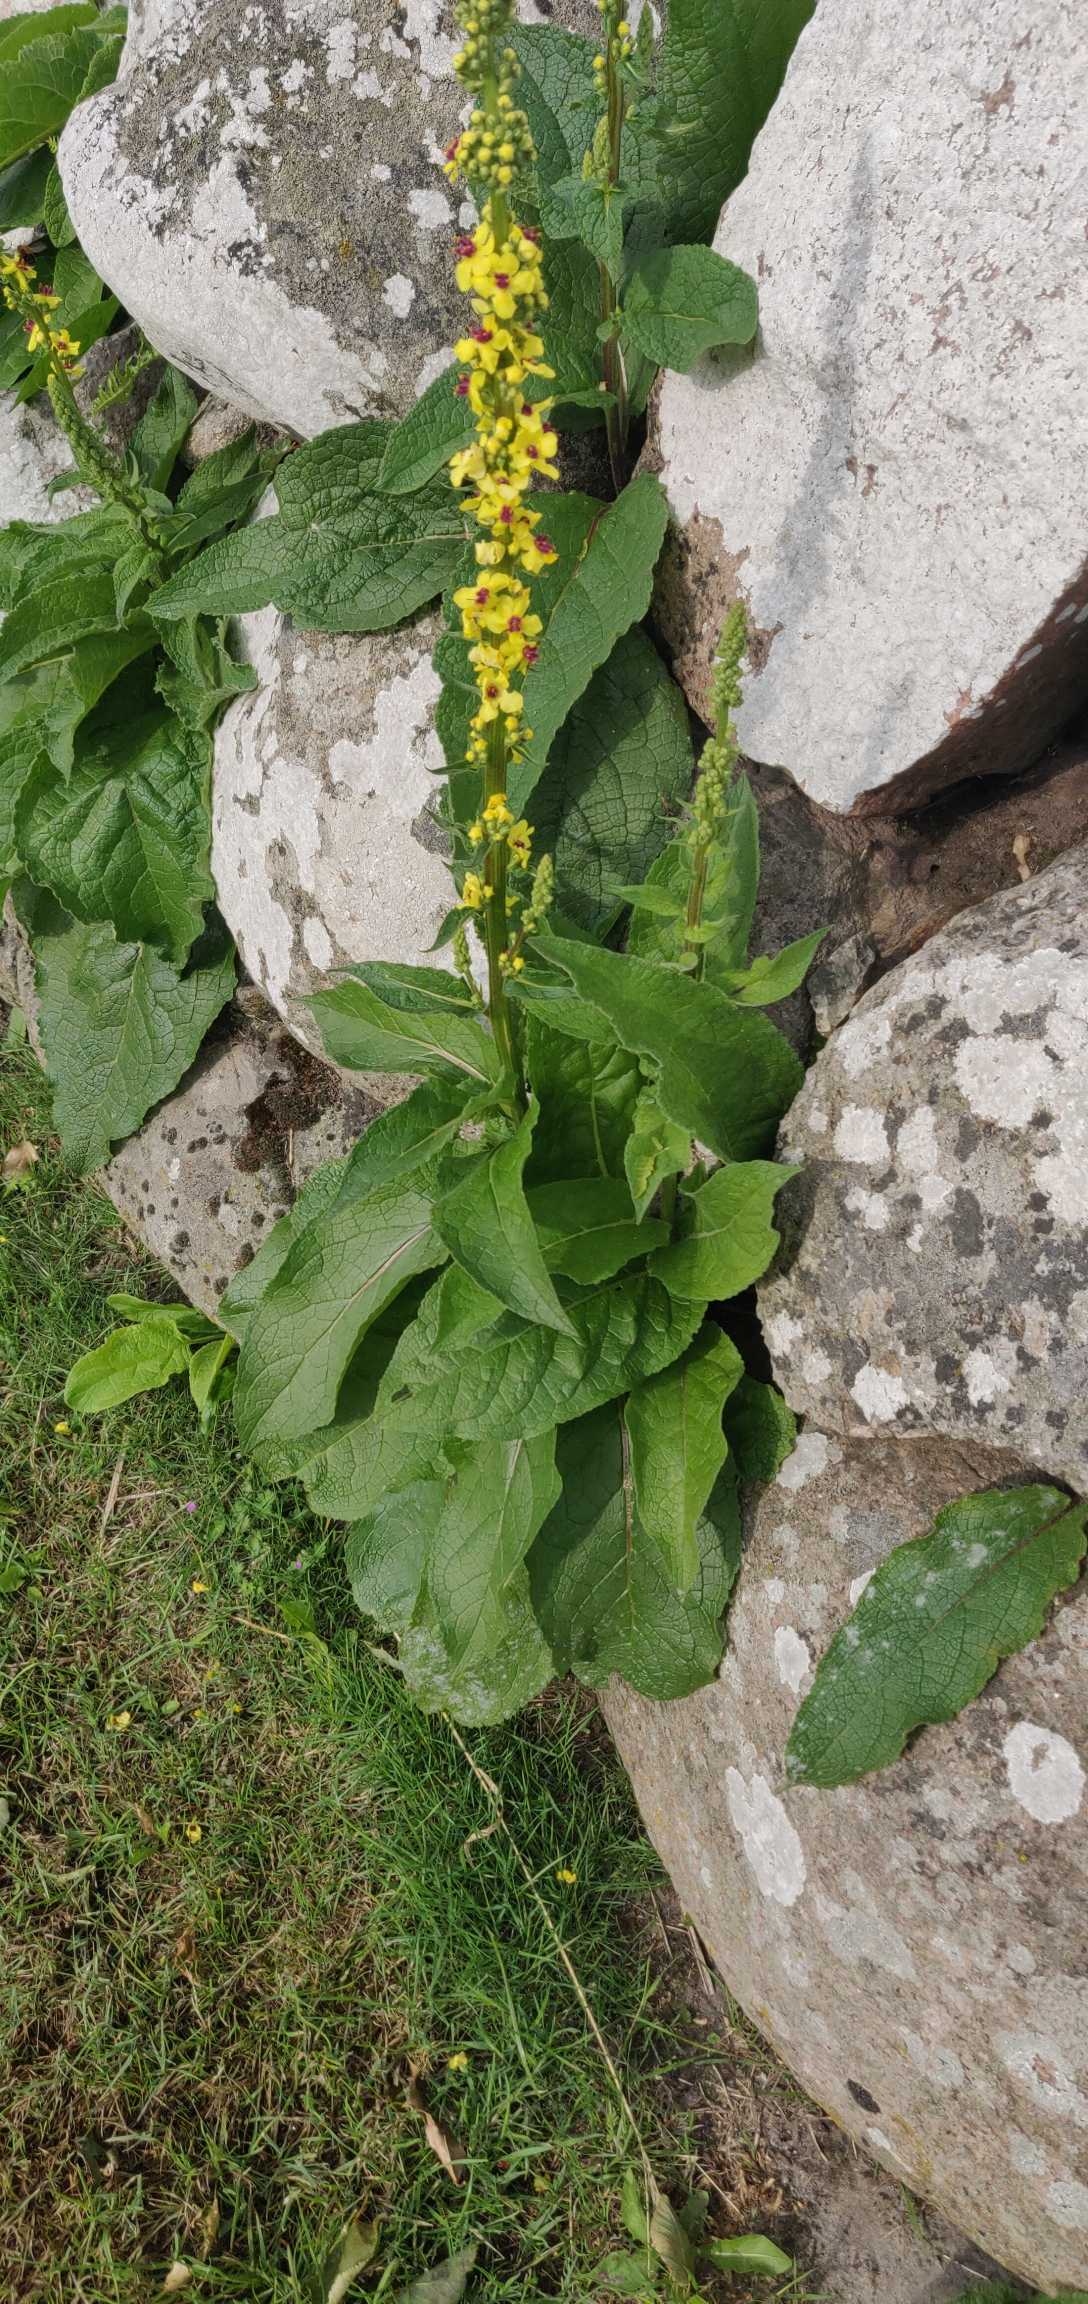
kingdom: Plantae
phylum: Tracheophyta
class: Magnoliopsida
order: Lamiales
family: Scrophulariaceae
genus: Verbascum
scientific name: Verbascum nigrum
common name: Mørk kongelys
